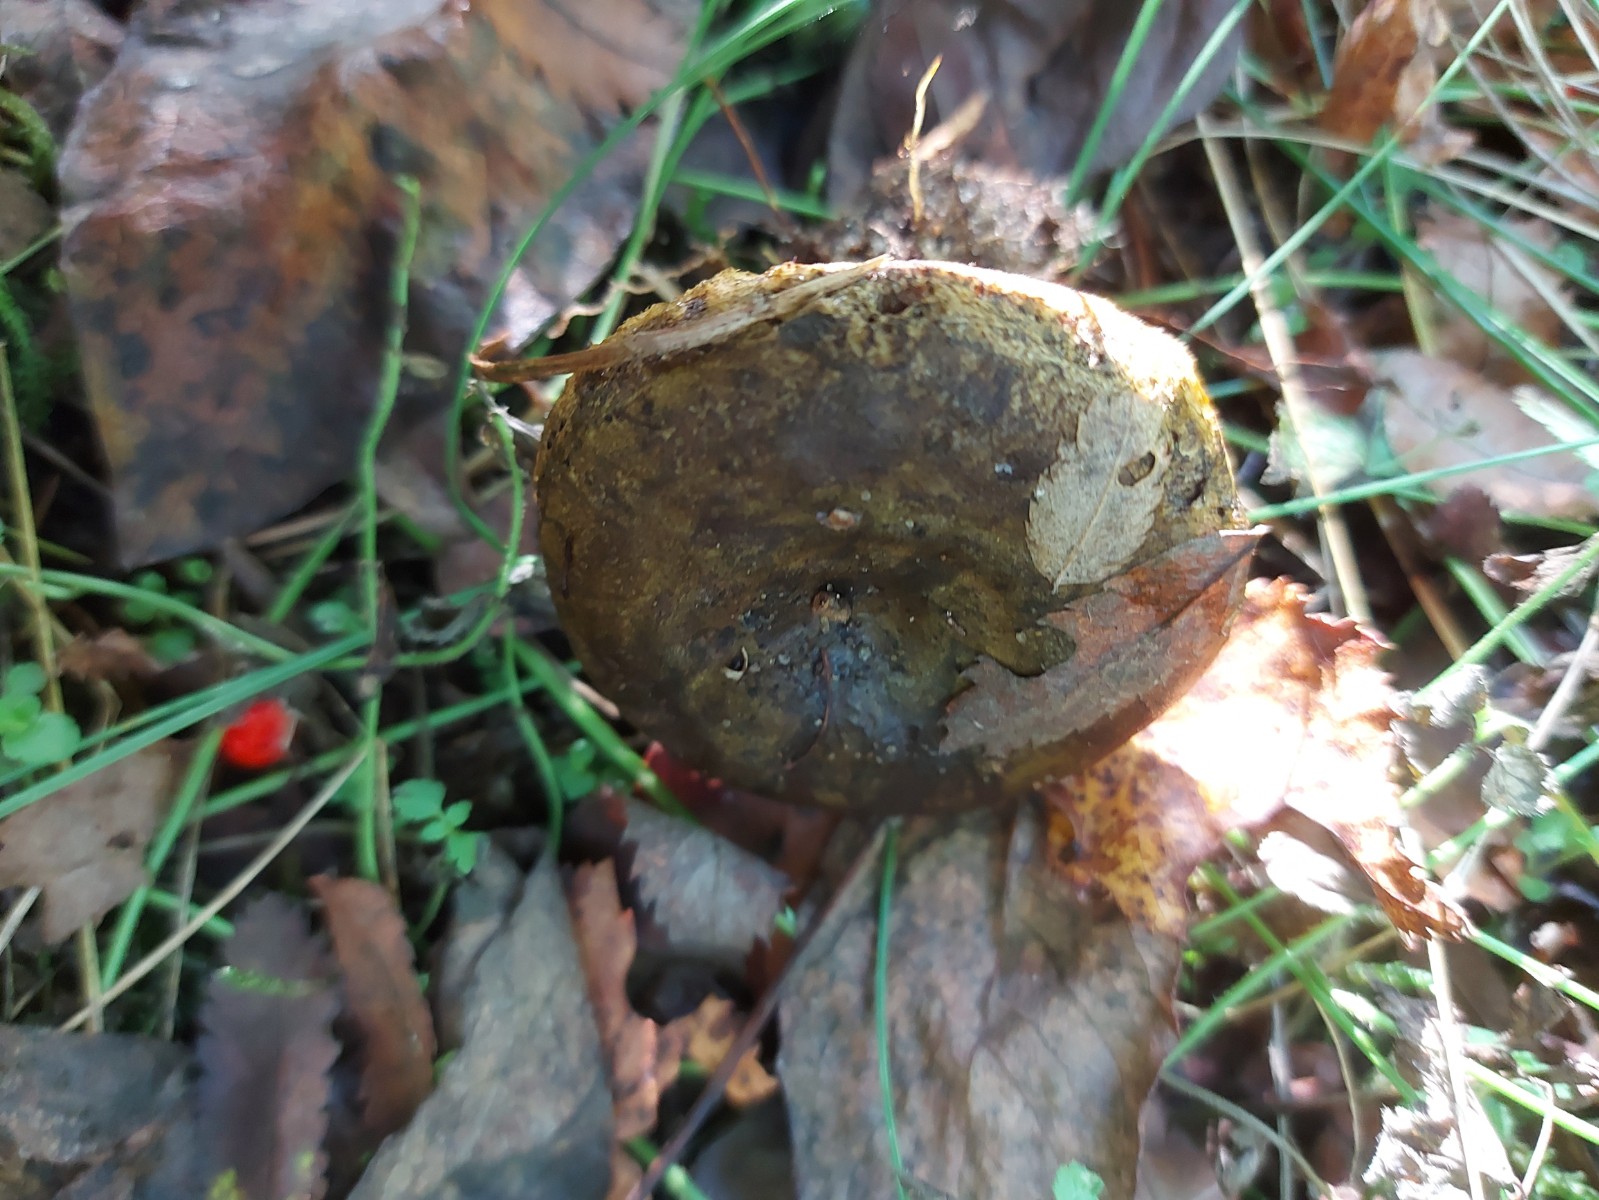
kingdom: Fungi
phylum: Basidiomycota
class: Agaricomycetes
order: Russulales
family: Russulaceae
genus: Lactarius
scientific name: Lactarius necator
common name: manddraber-mælkehat
